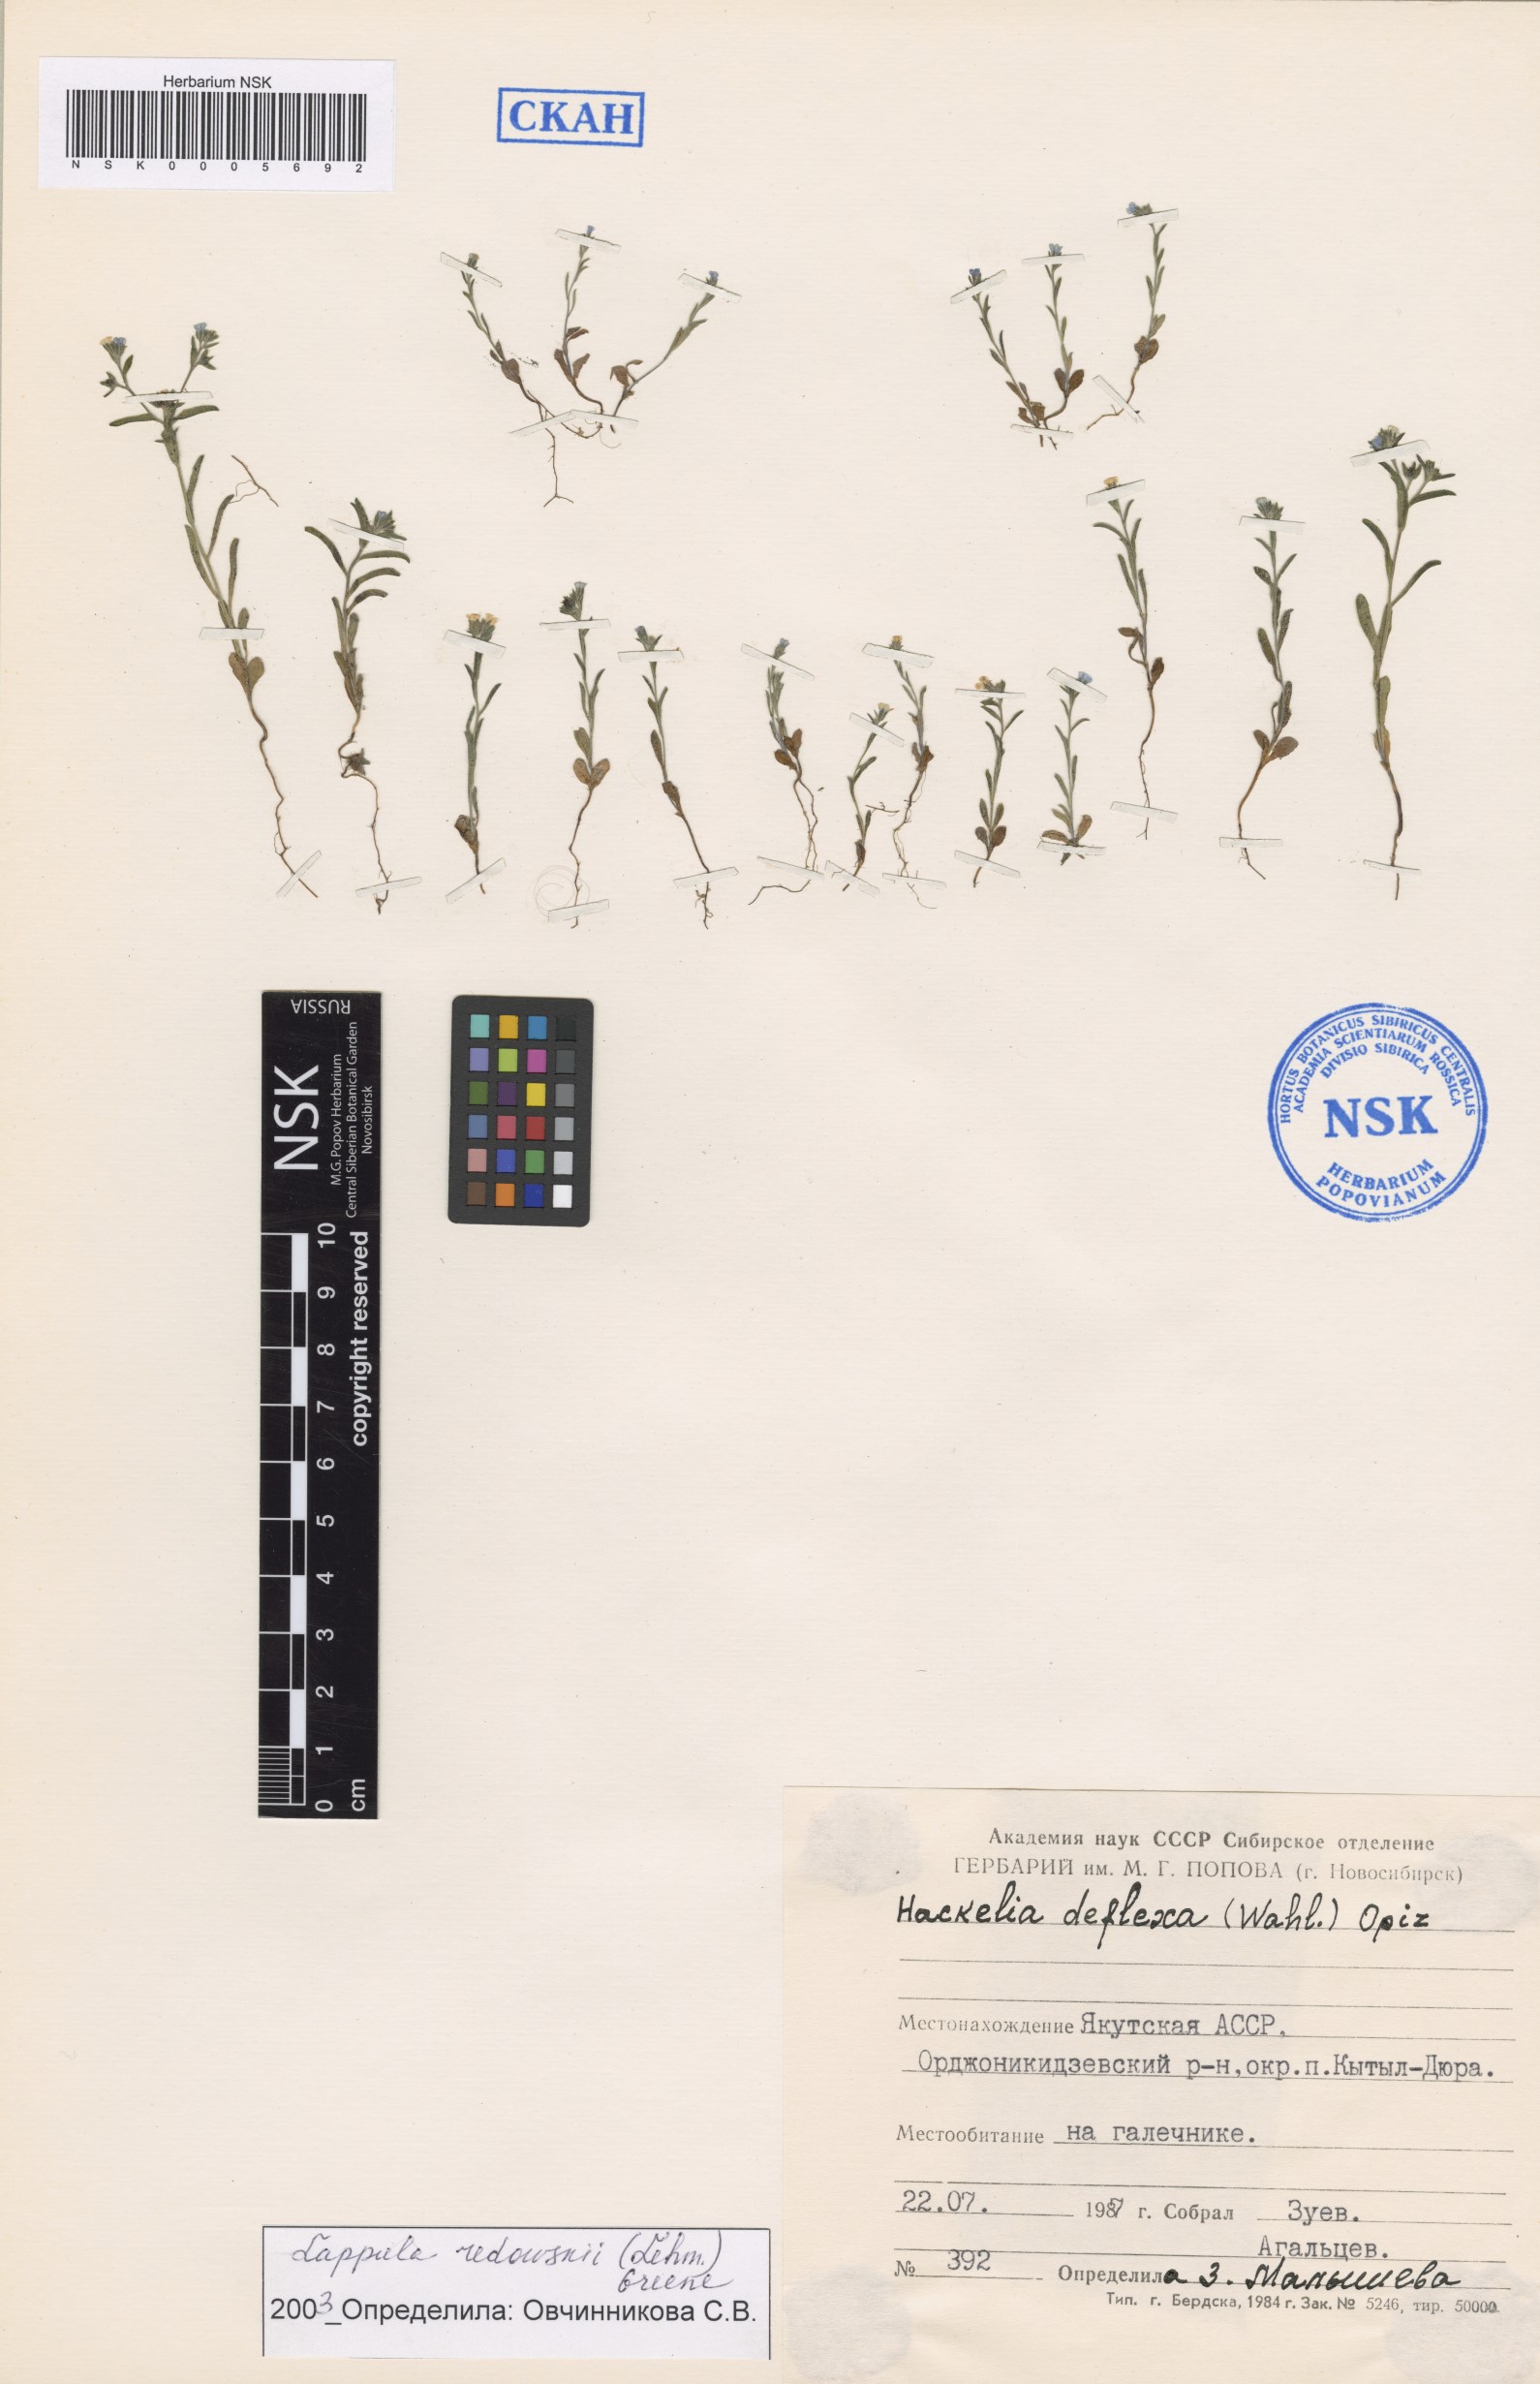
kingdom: Plantae
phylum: Tracheophyta
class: Magnoliopsida
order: Boraginales
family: Boraginaceae
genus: Lappula
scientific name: Lappula redowskii
